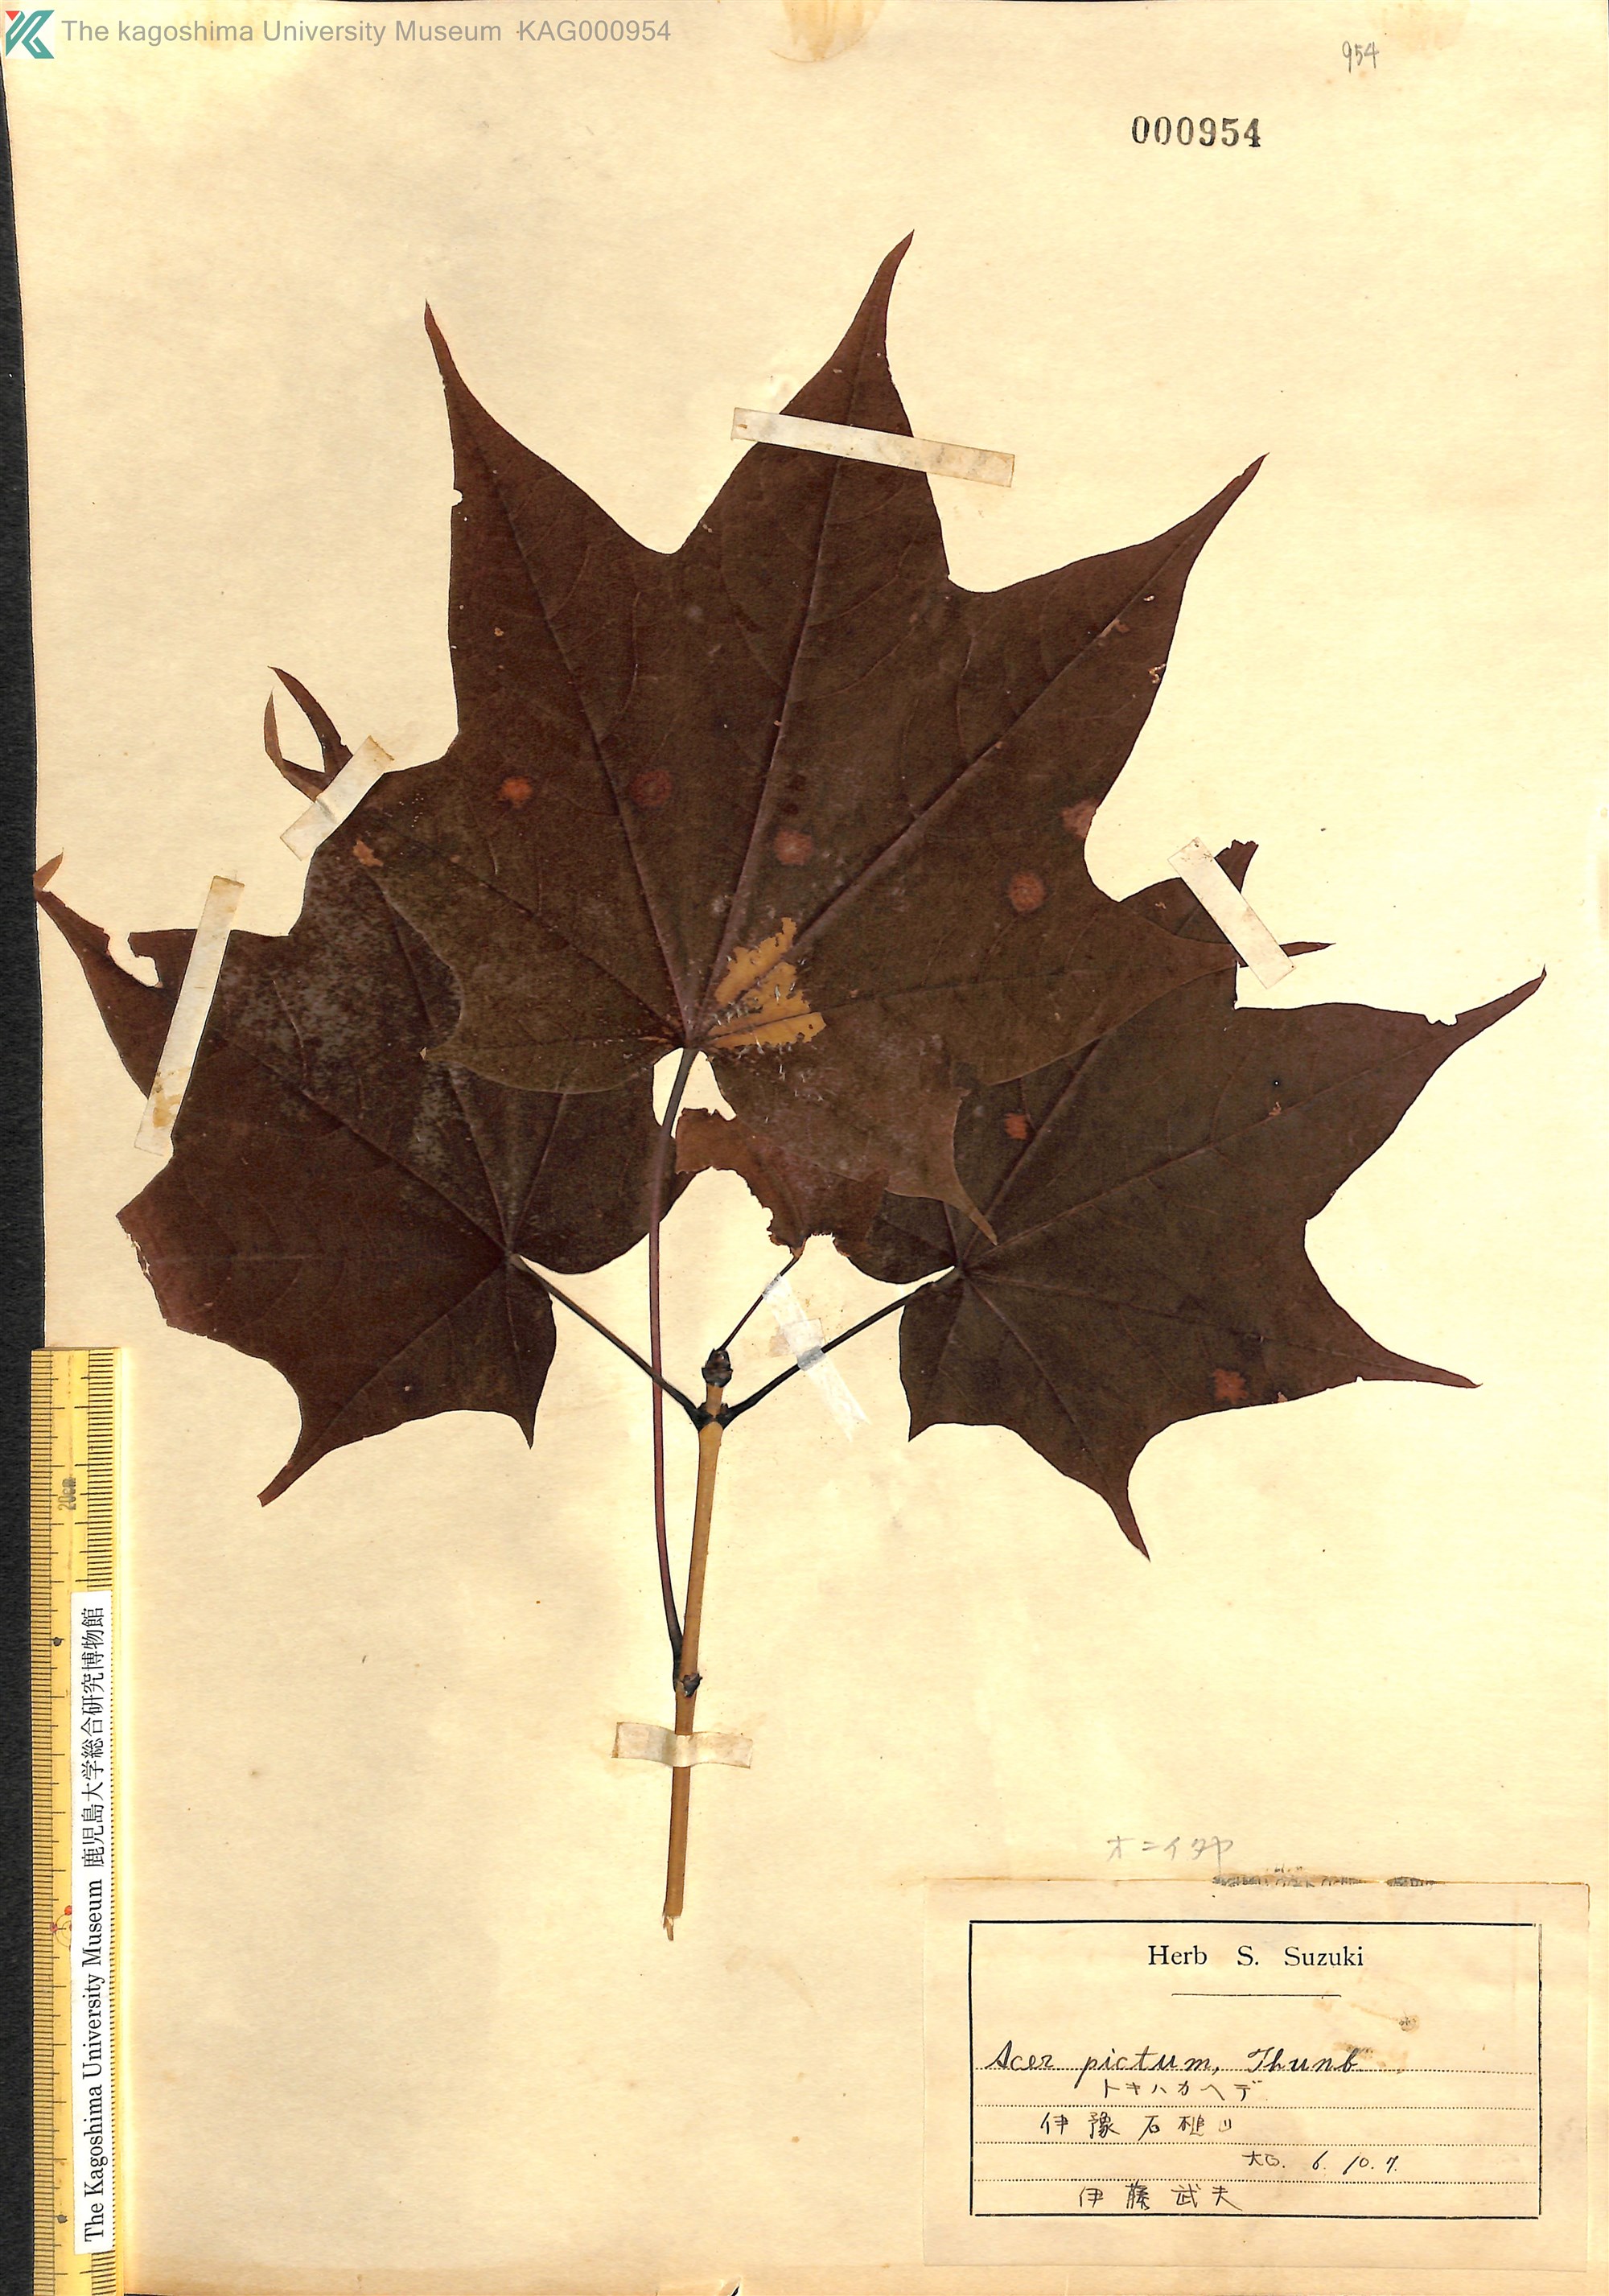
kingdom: Plantae
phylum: Tracheophyta
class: Magnoliopsida
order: Sapindales
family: Sapindaceae
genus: Acer
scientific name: Acer pictum
